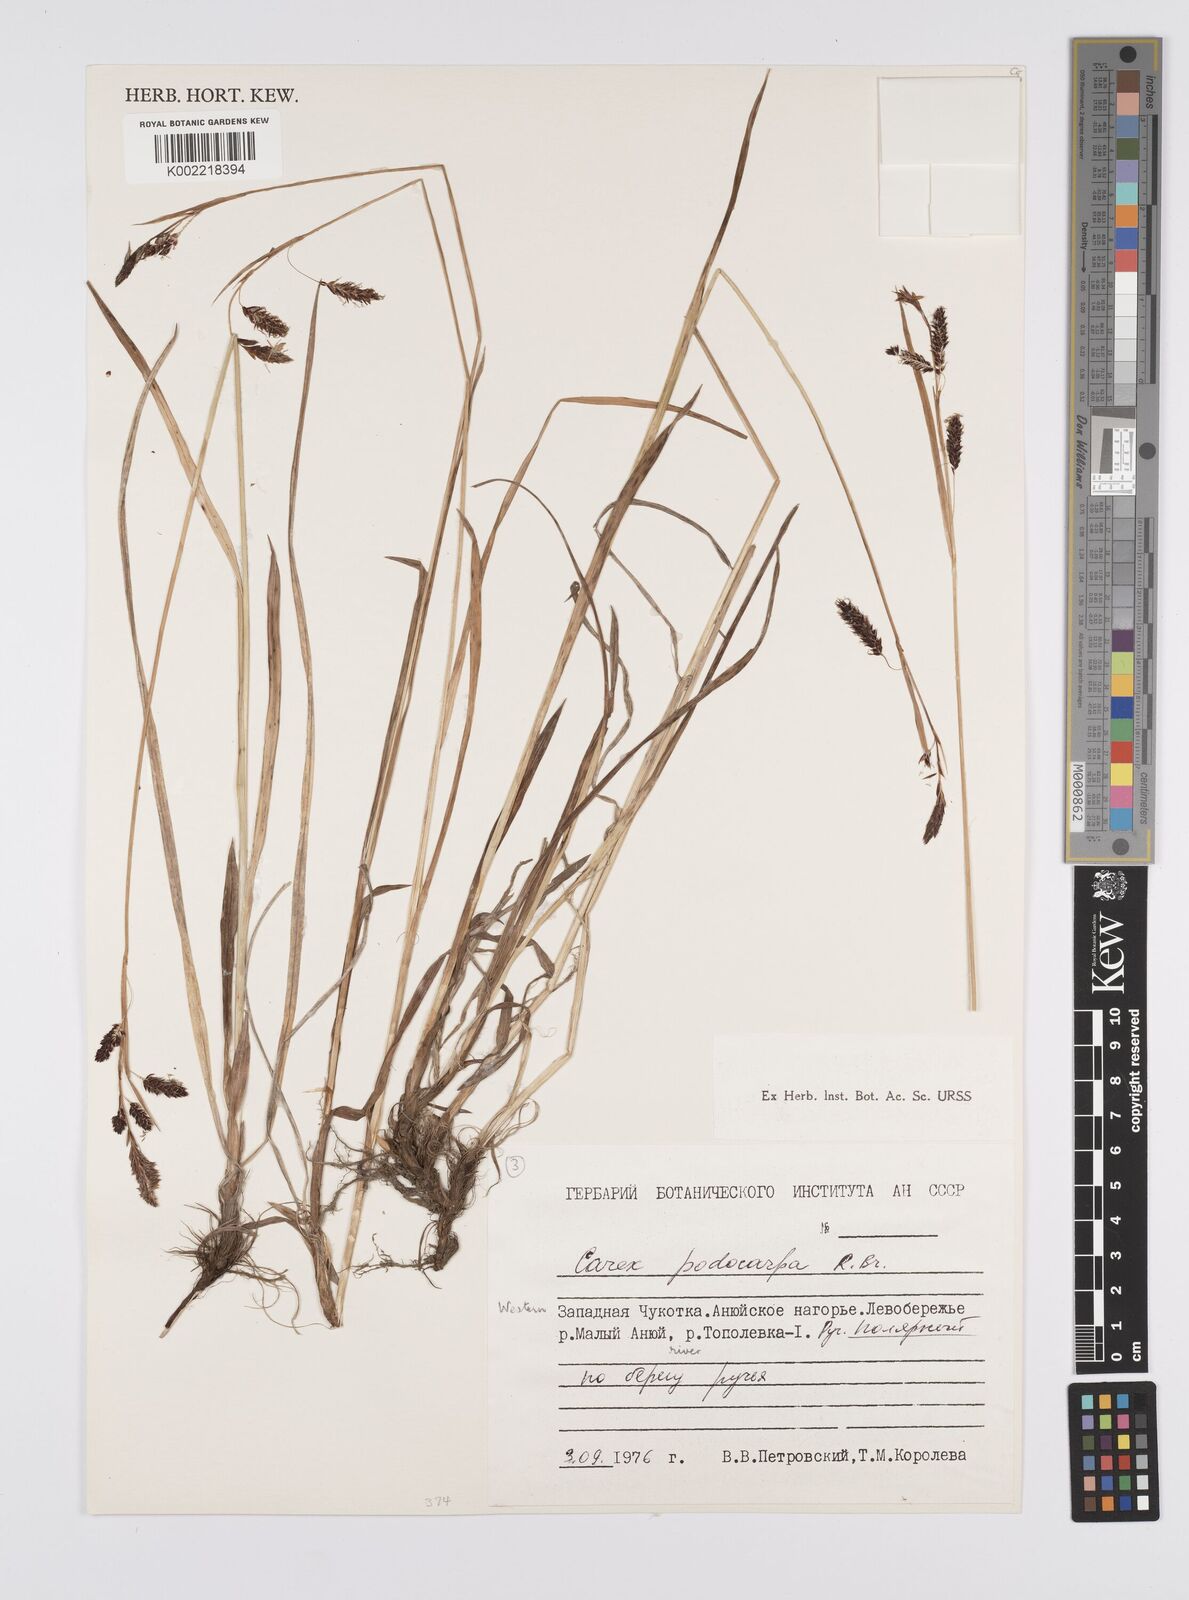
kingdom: Plantae
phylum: Tracheophyta
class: Liliopsida
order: Poales
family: Cyperaceae
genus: Carex
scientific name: Carex podocarpa
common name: Alpine sedge
